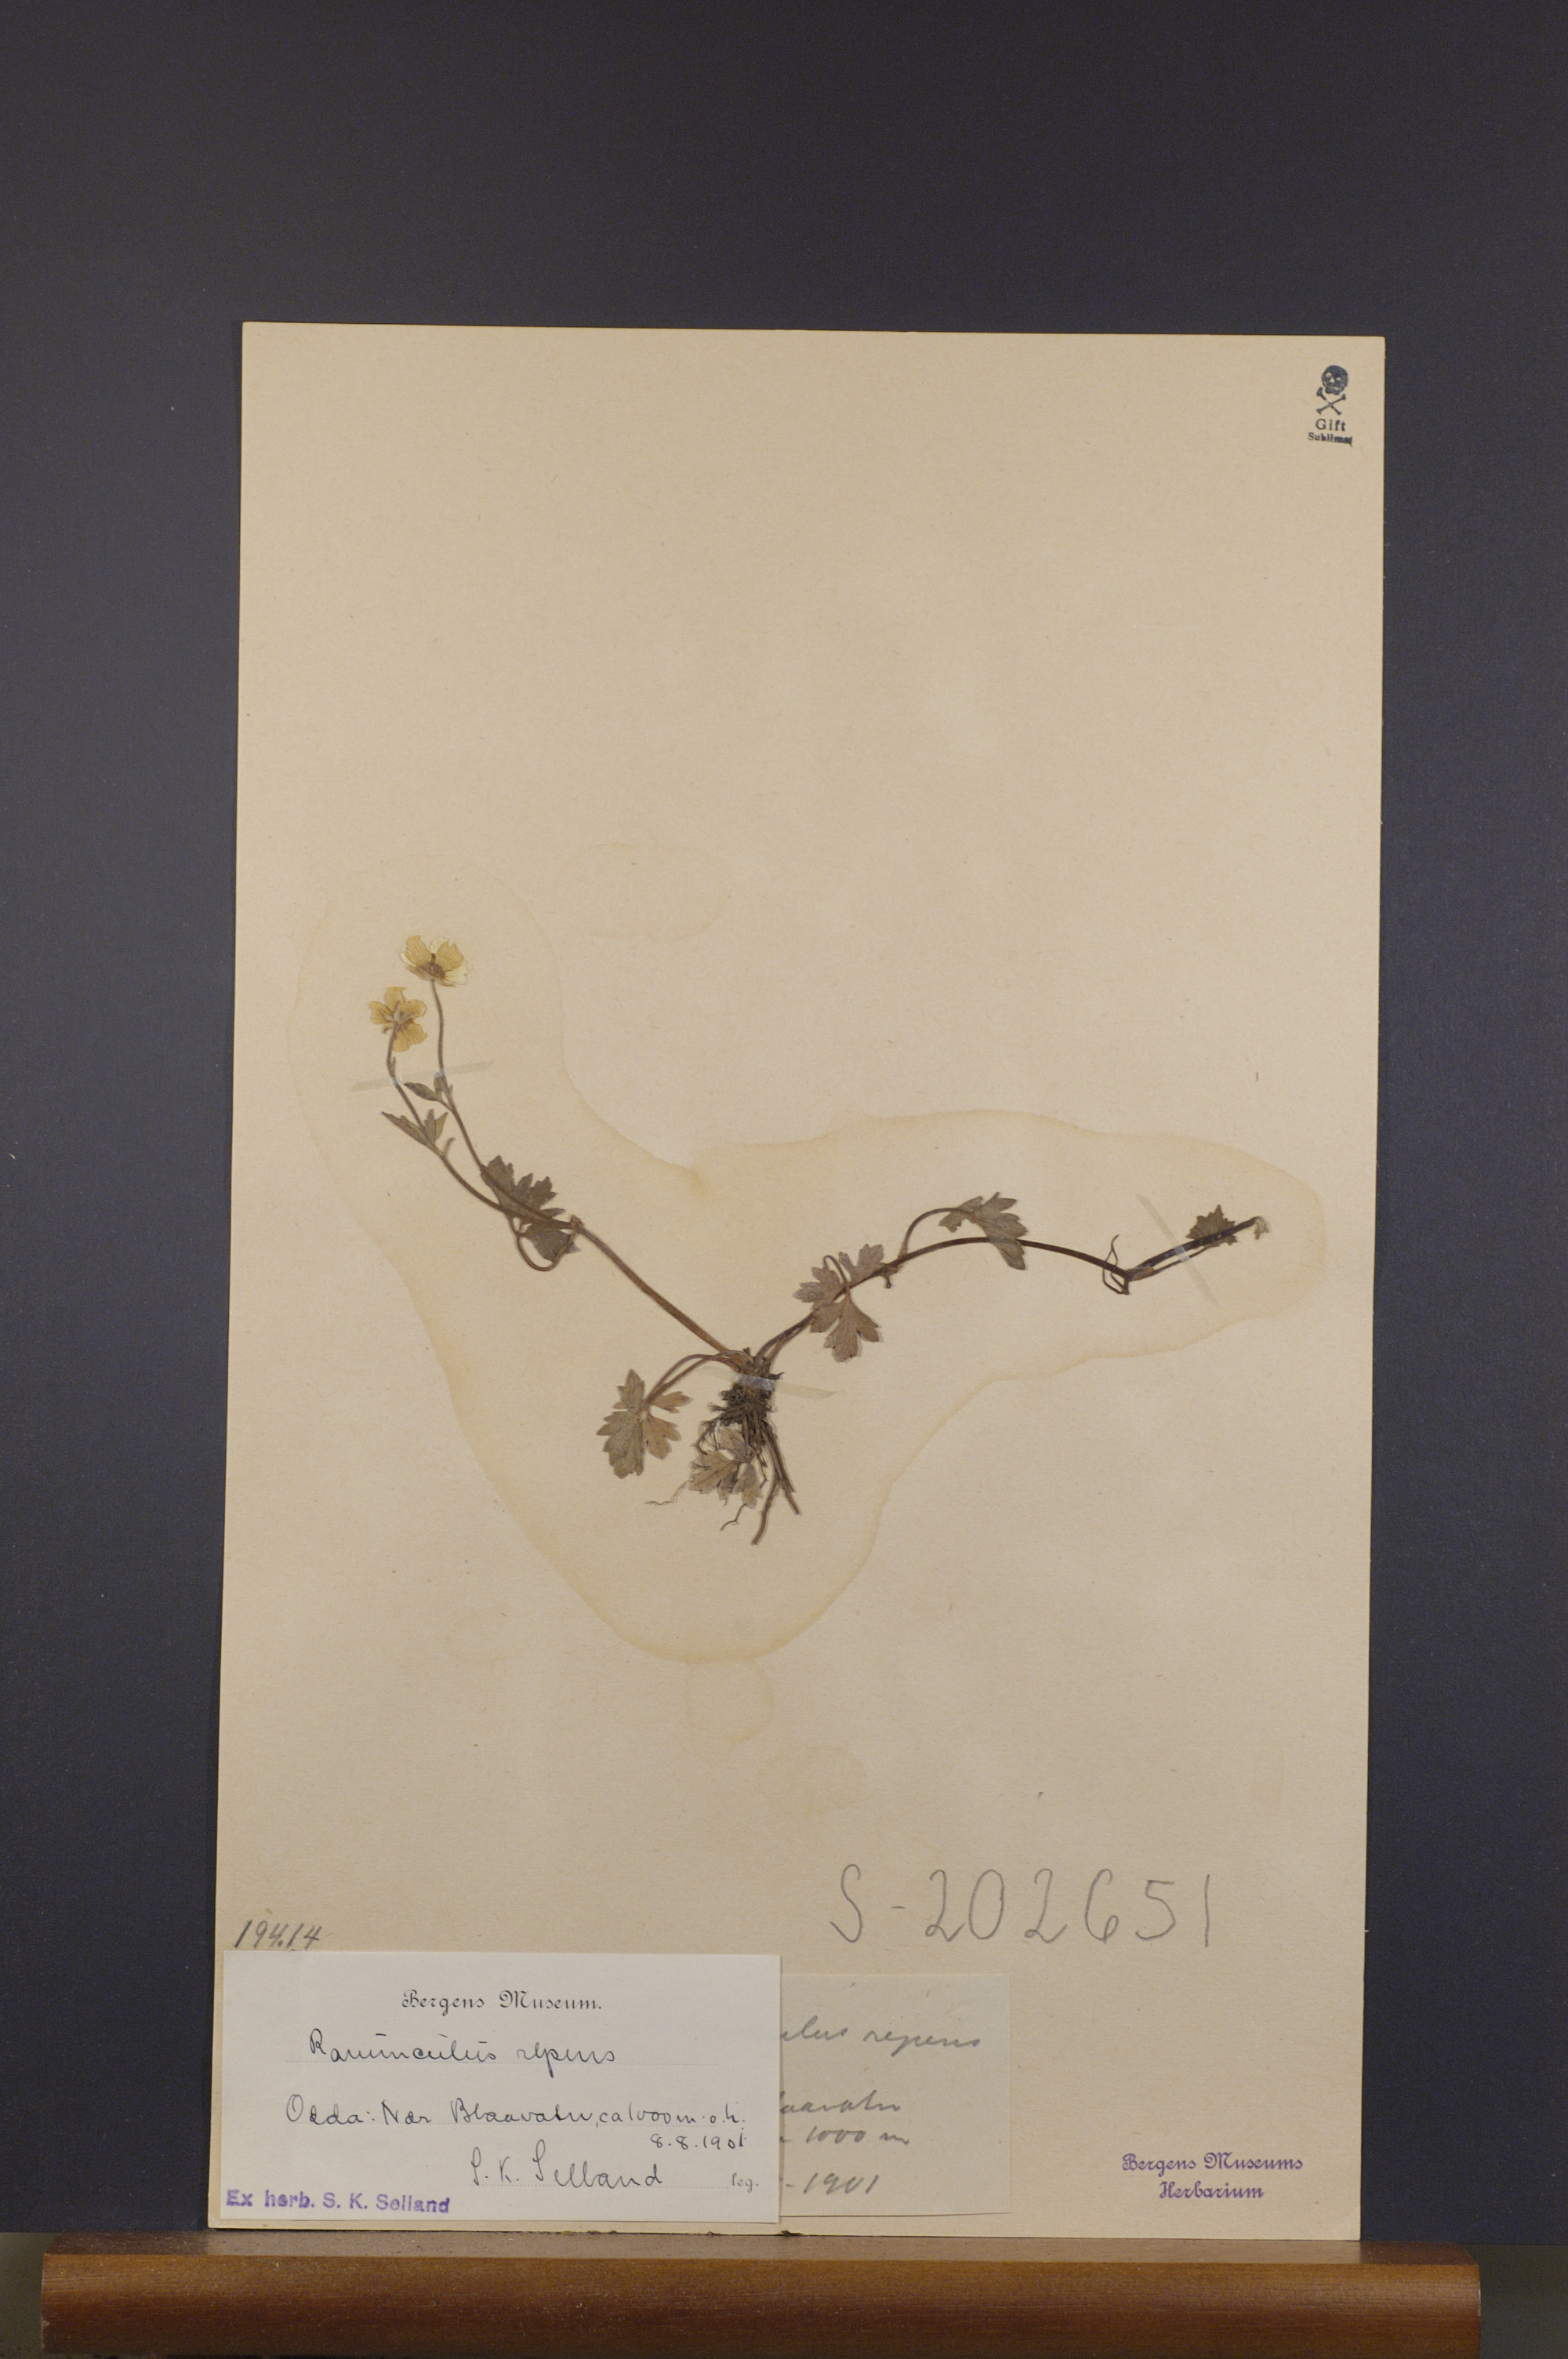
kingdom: Plantae
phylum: Tracheophyta
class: Magnoliopsida
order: Ranunculales
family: Ranunculaceae
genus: Ranunculus
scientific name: Ranunculus repens
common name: Creeping buttercup
